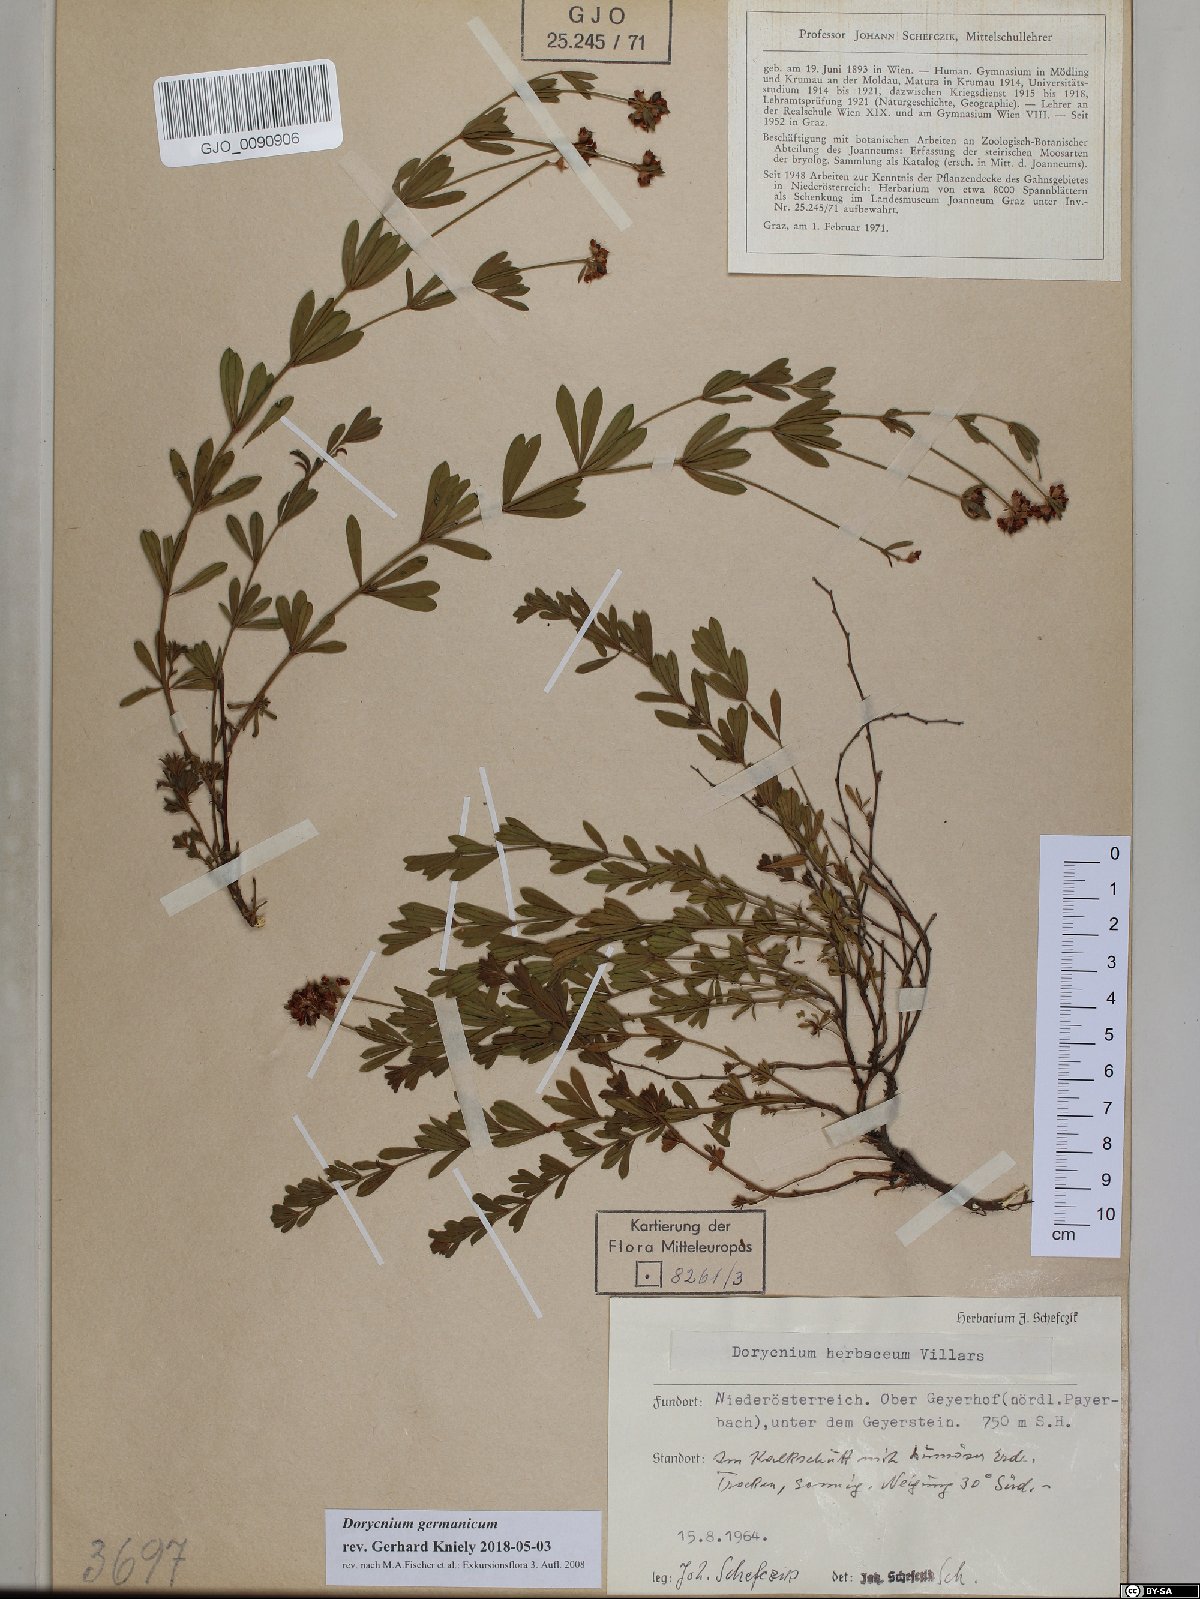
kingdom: Plantae
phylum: Tracheophyta
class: Magnoliopsida
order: Fabales
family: Fabaceae
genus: Lotus
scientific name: Lotus germanicus
